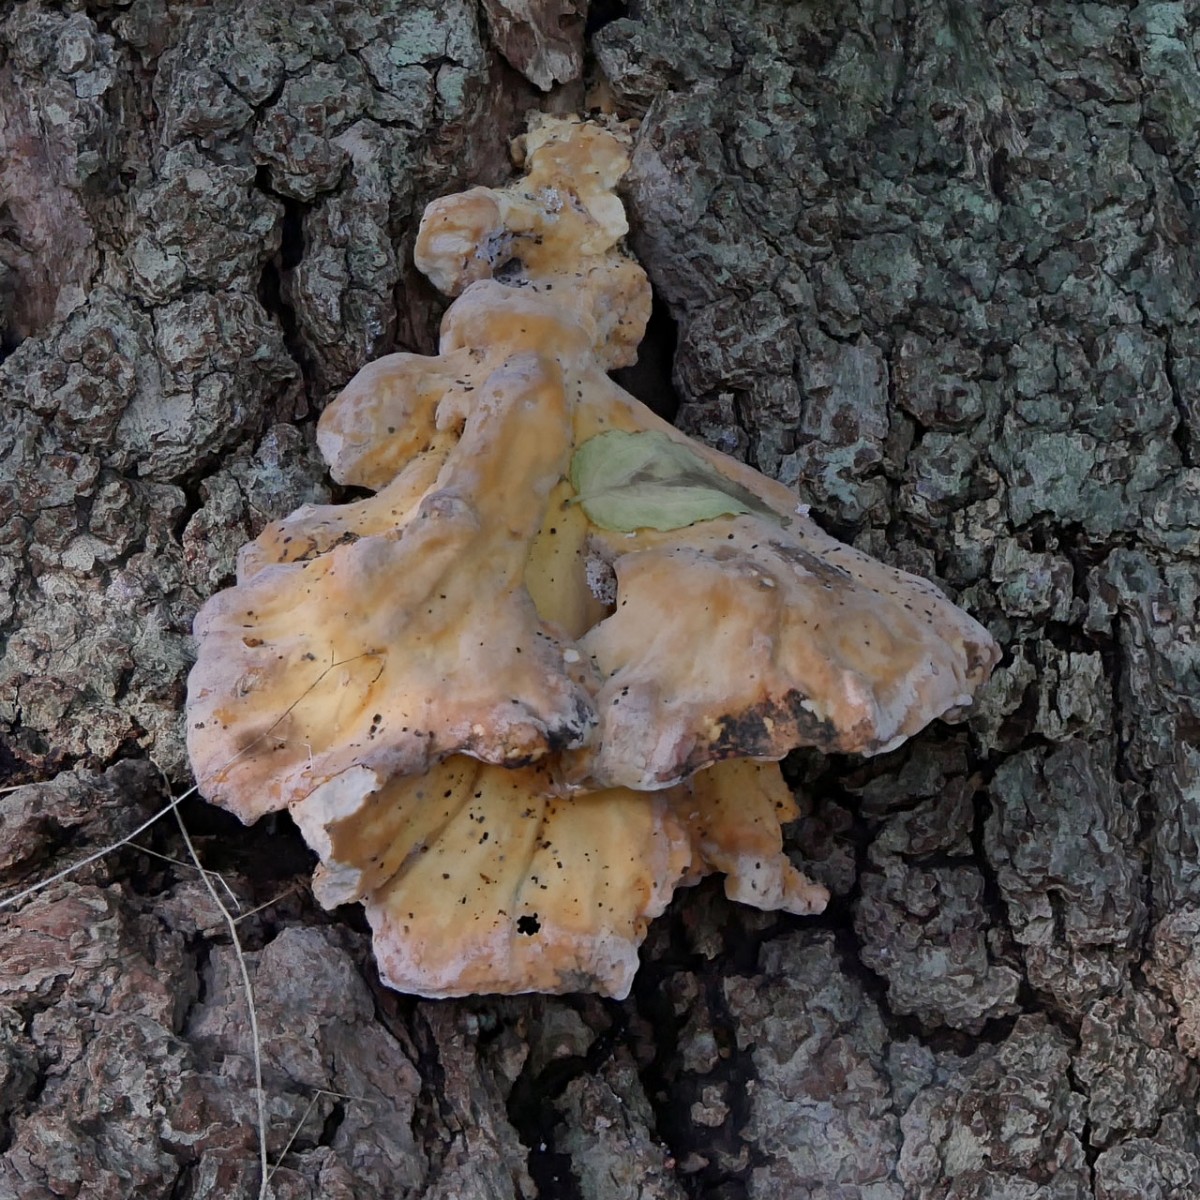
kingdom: Fungi
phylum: Basidiomycota
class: Agaricomycetes
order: Polyporales
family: Laetiporaceae
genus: Laetiporus
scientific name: Laetiporus sulphureus
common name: svovlporesvamp
